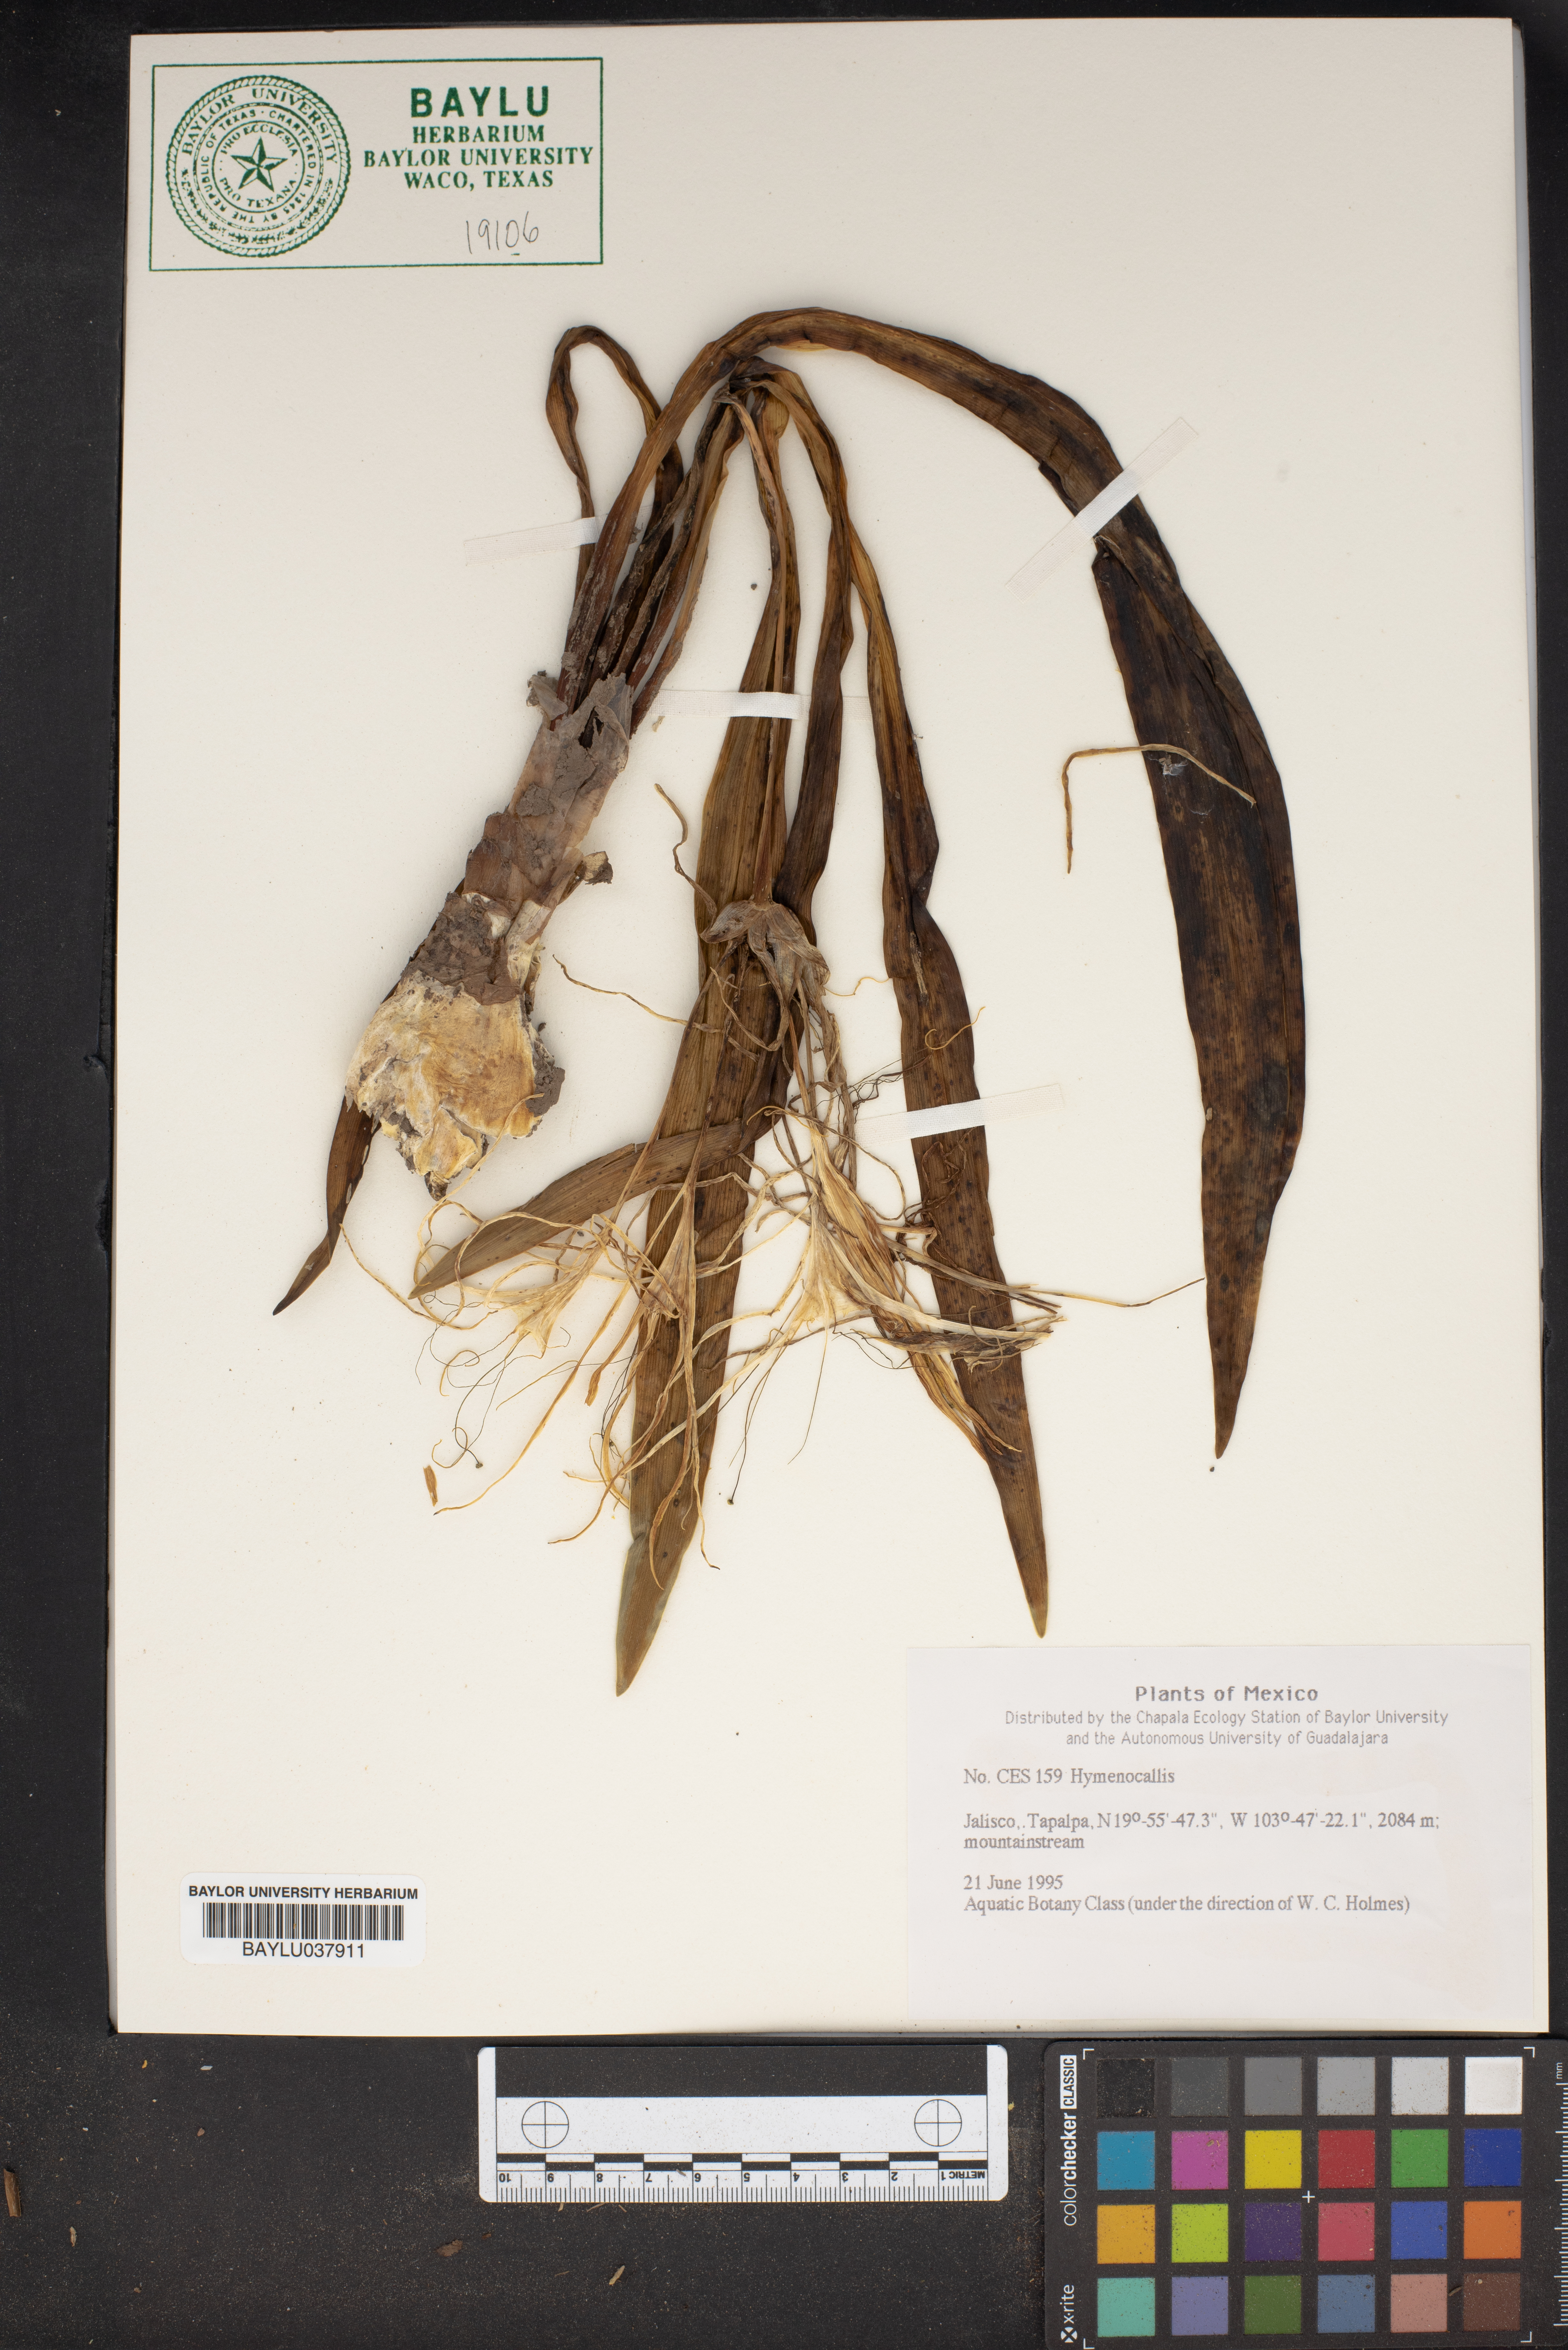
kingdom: Plantae
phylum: Tracheophyta
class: Liliopsida
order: Asparagales
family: Amaryllidaceae
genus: Hymenocallis
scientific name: Hymenocallis
